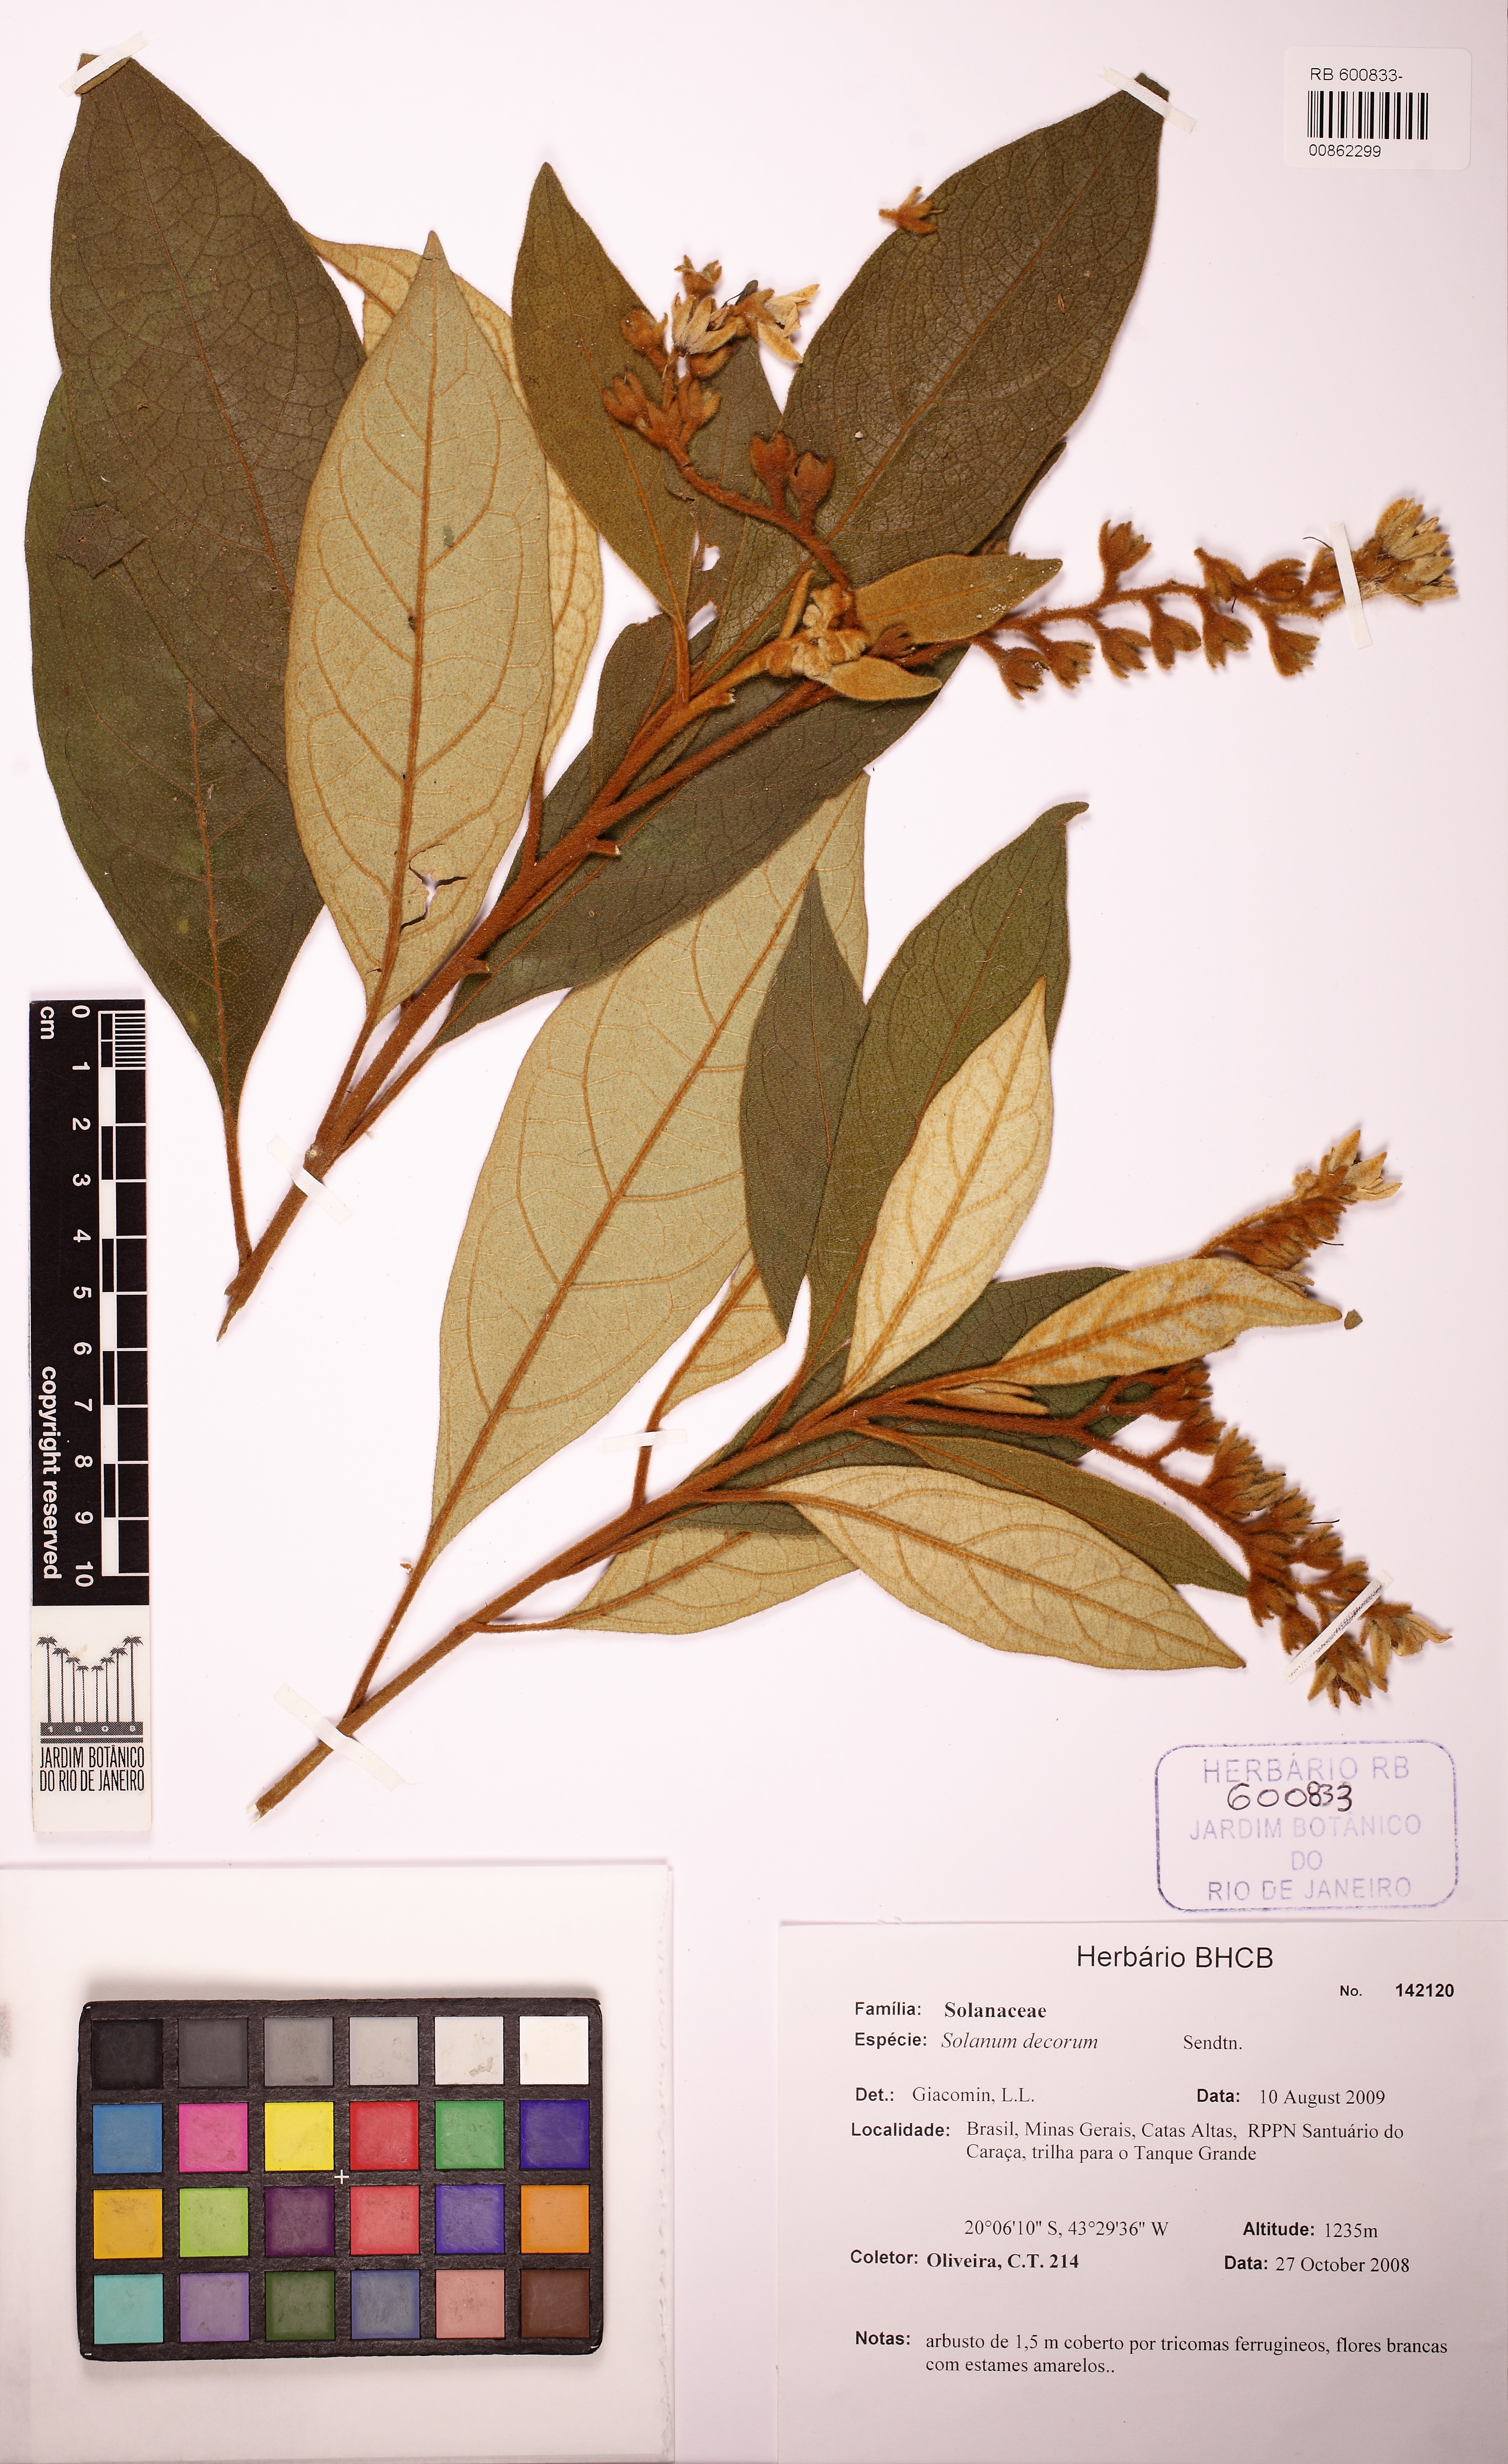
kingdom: Plantae
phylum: Tracheophyta
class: Magnoliopsida
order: Solanales
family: Solanaceae
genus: Solanum
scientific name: Solanum decorum
